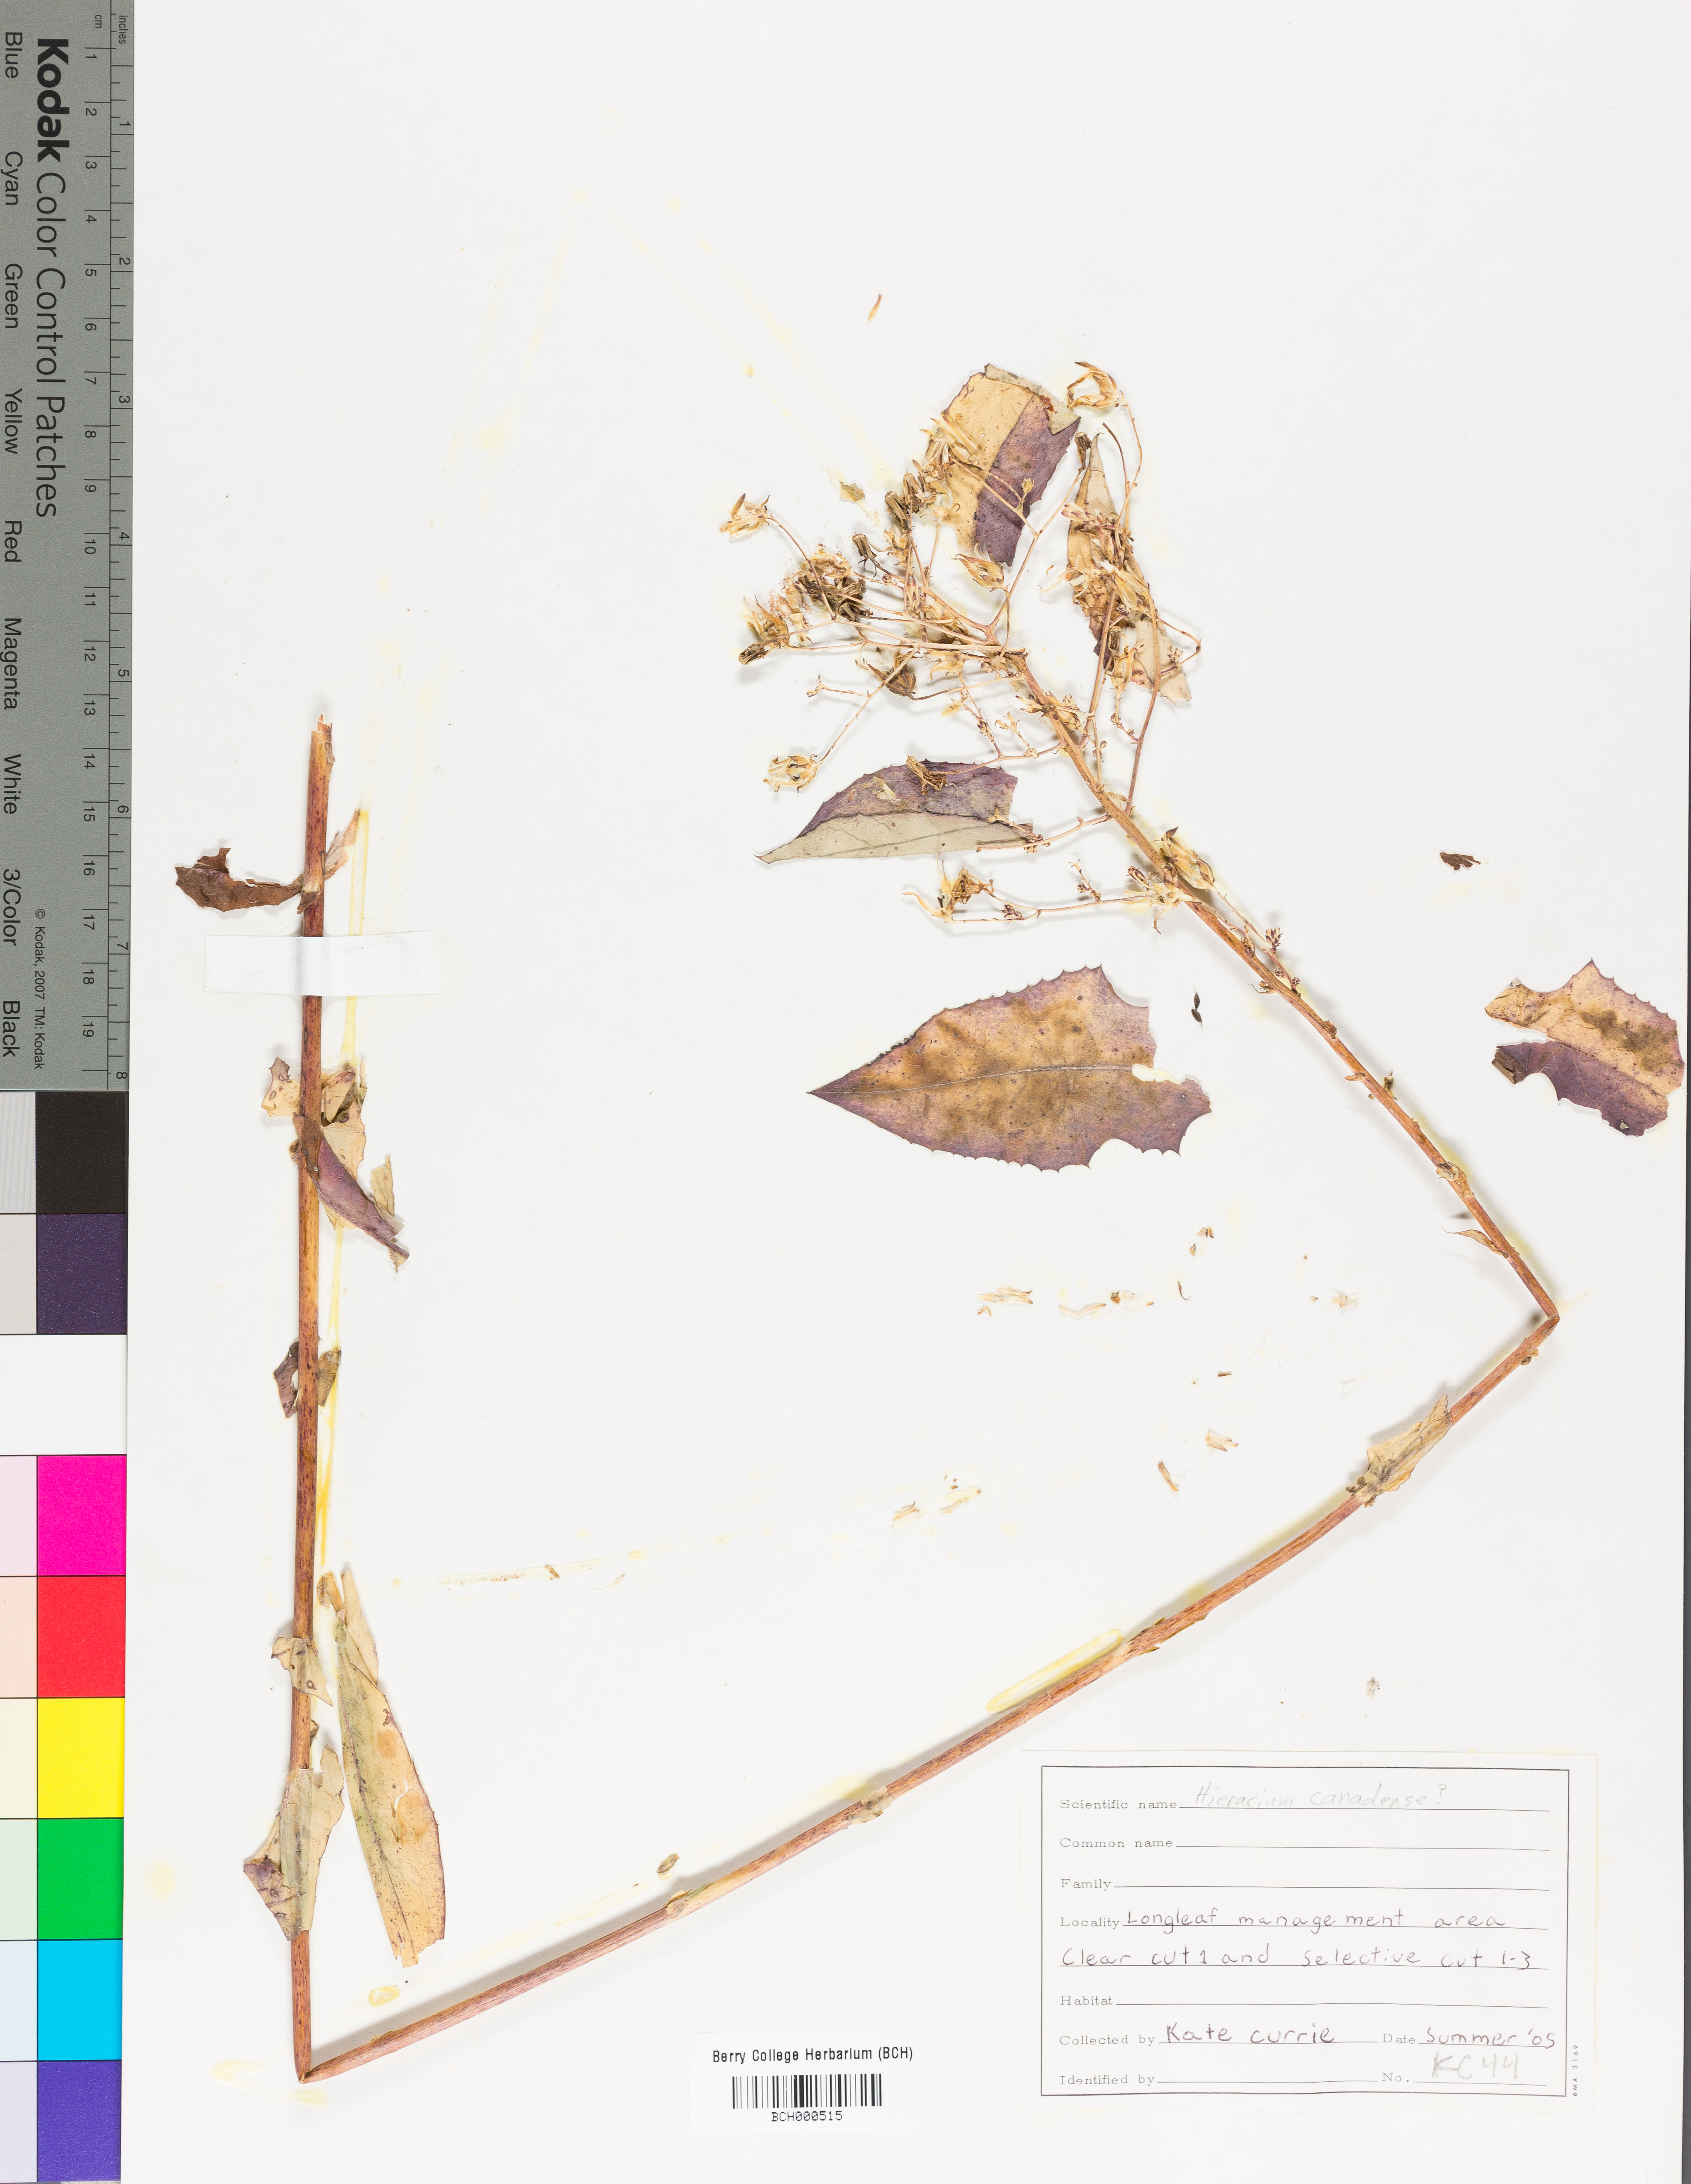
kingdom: Plantae
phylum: Tracheophyta
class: Magnoliopsida
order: Lamiales
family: Acanthaceae
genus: Adhatoda
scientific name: Adhatoda
